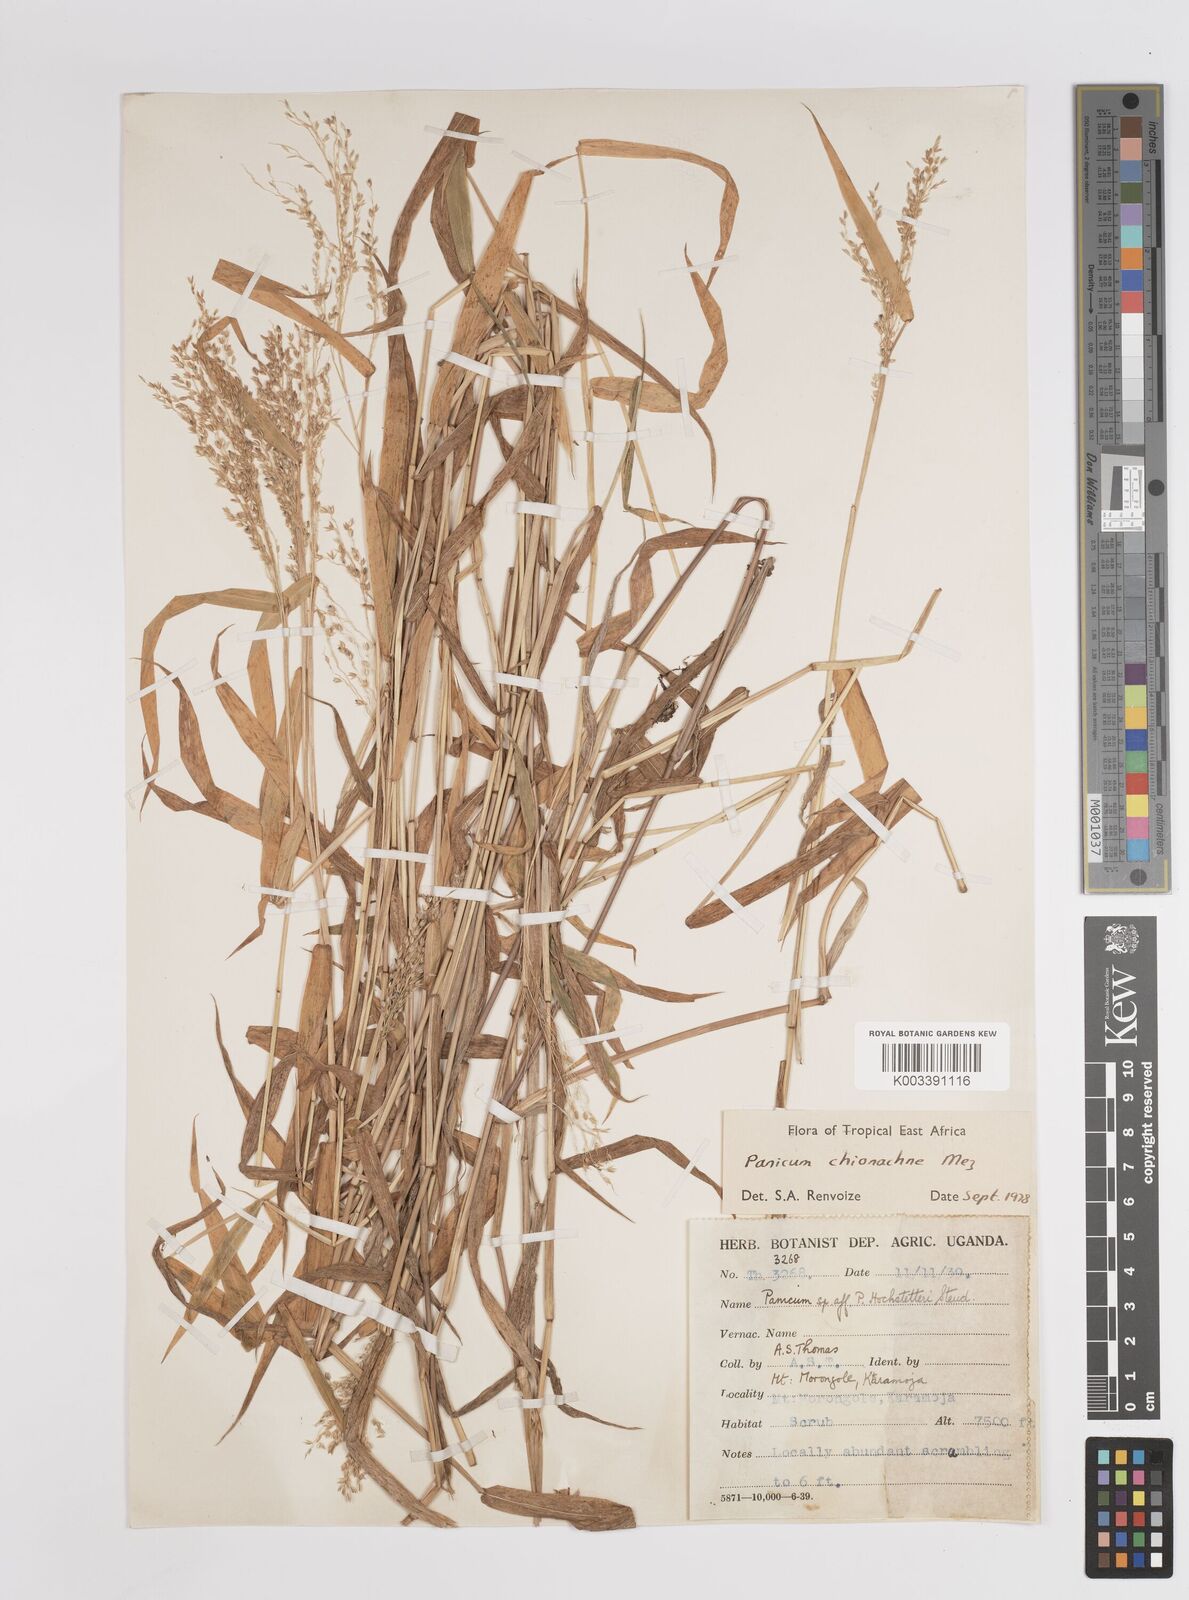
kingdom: Plantae
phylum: Tracheophyta
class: Liliopsida
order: Poales
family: Poaceae
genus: Panicum
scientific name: Panicum chionachne
